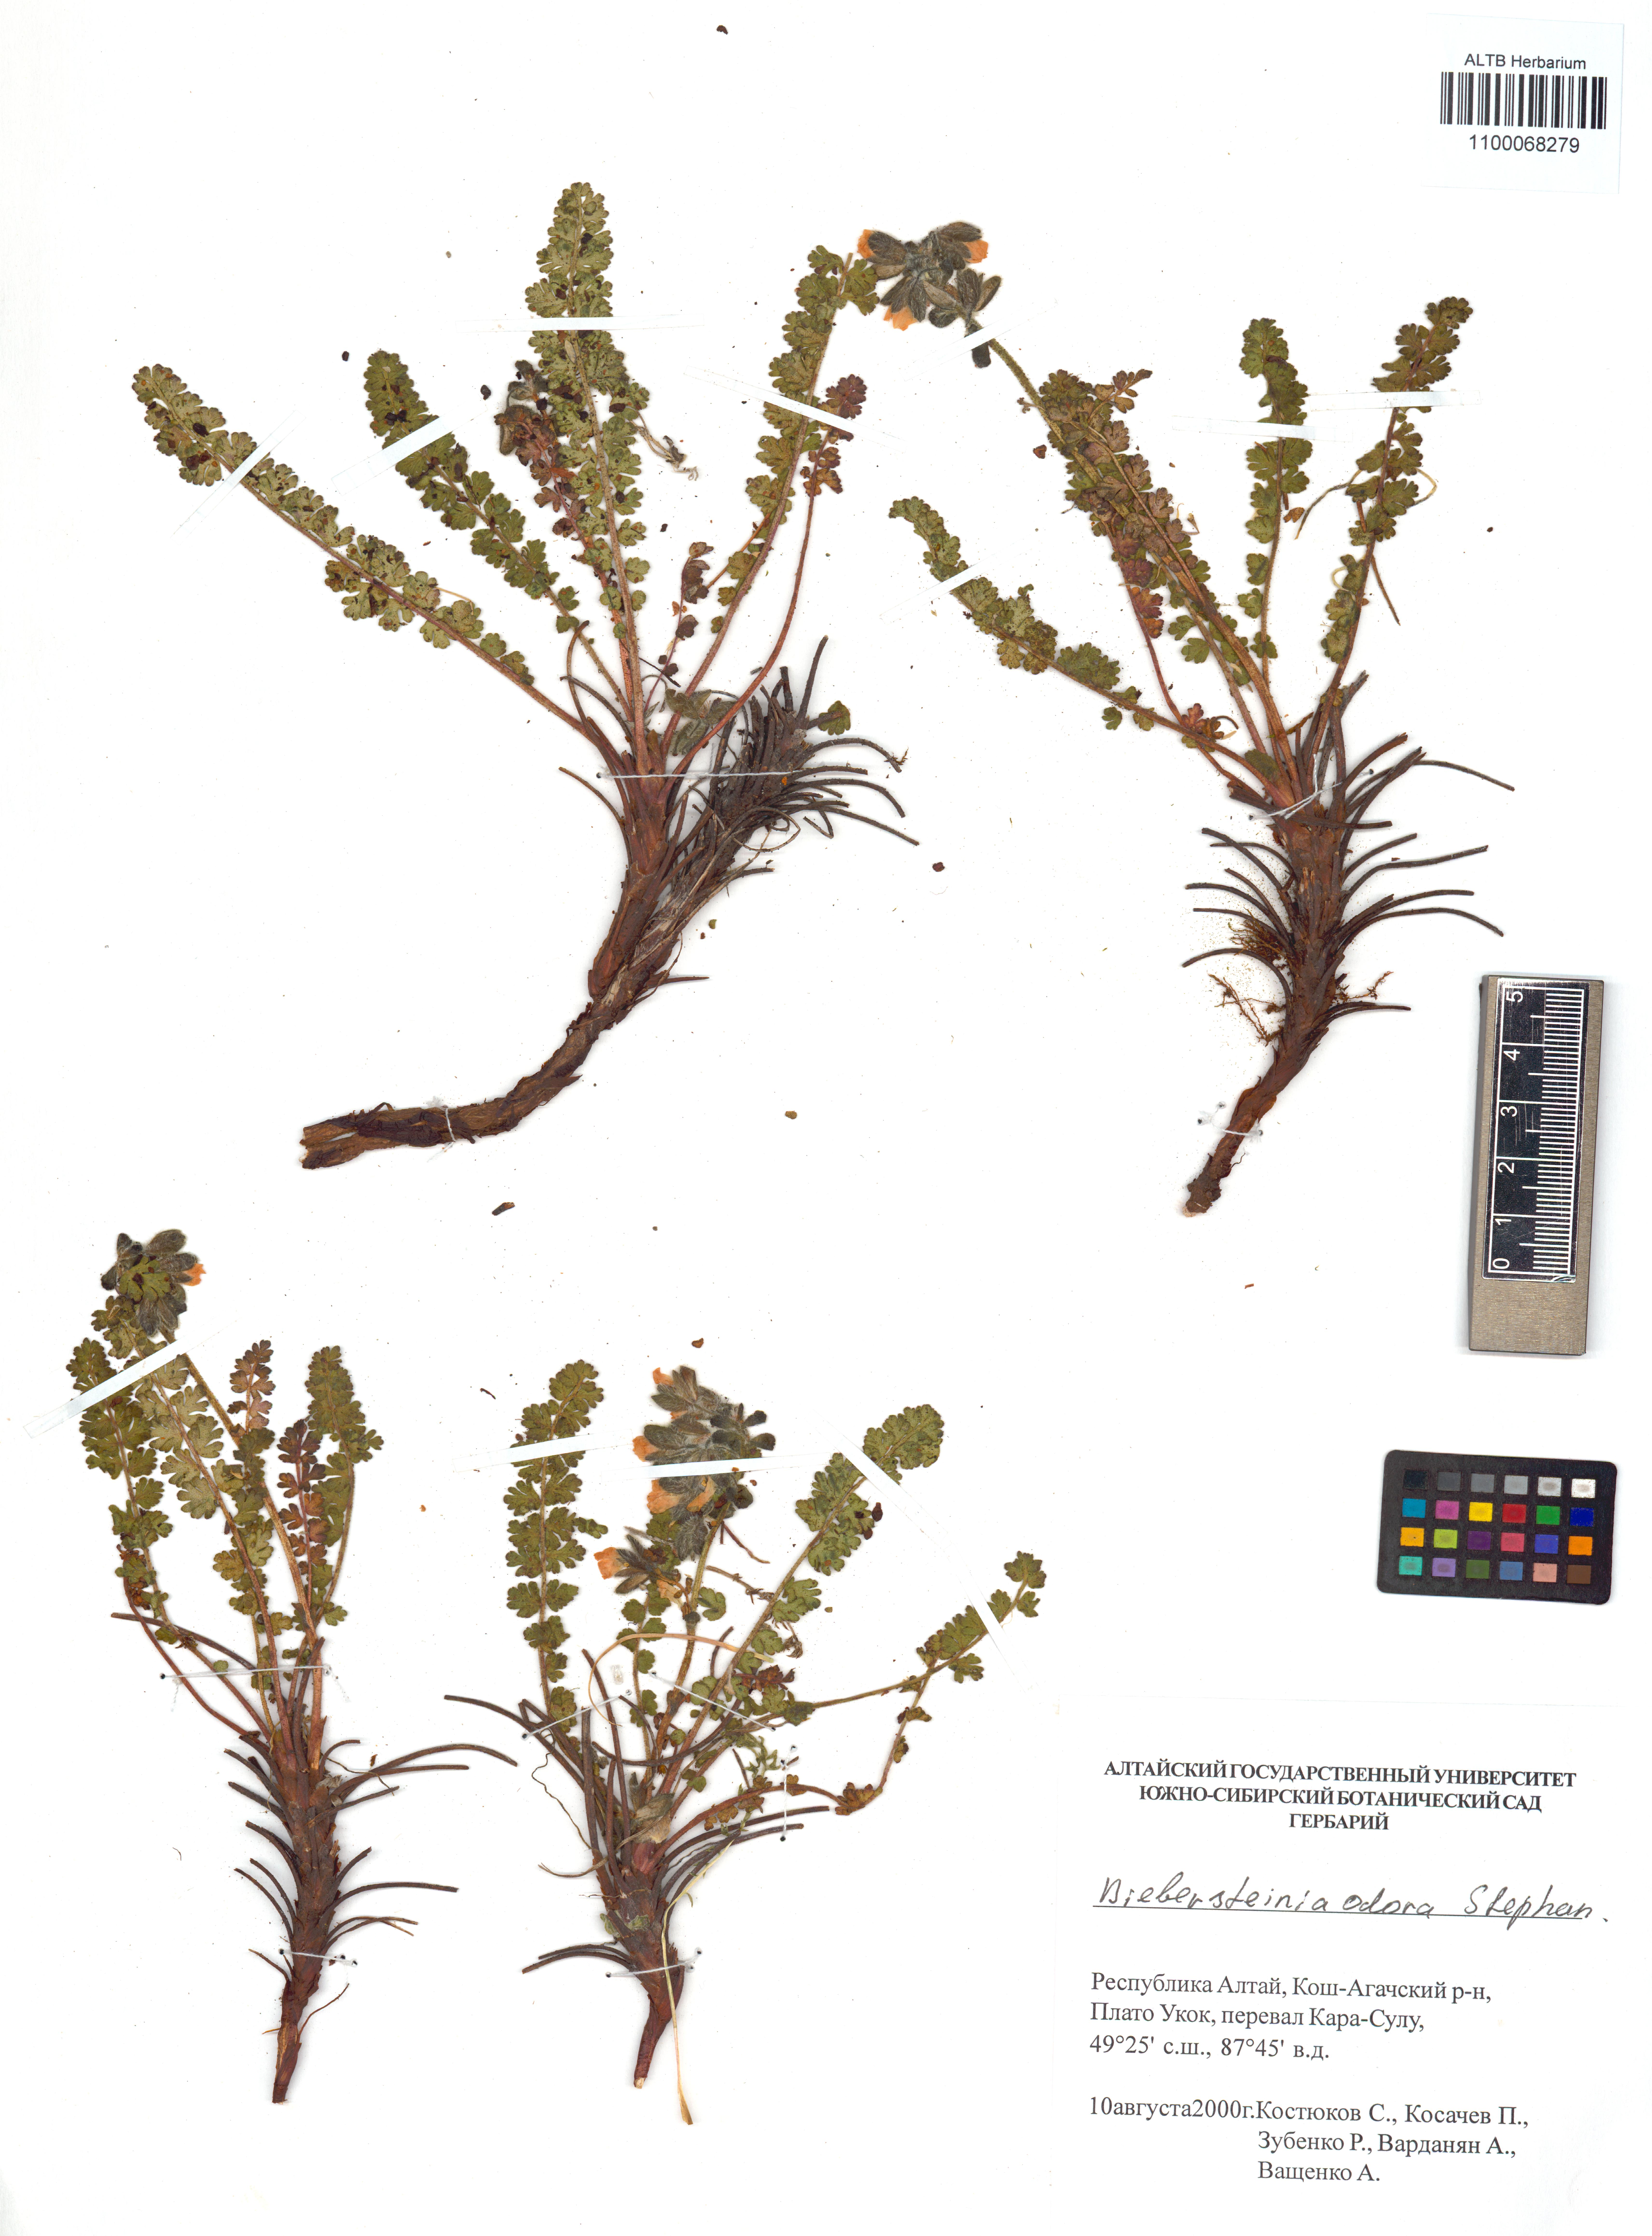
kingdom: Plantae
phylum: Tracheophyta
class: Magnoliopsida
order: Sapindales
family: Biebersteiniaceae
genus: Biebersteinia
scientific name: Biebersteinia odora
